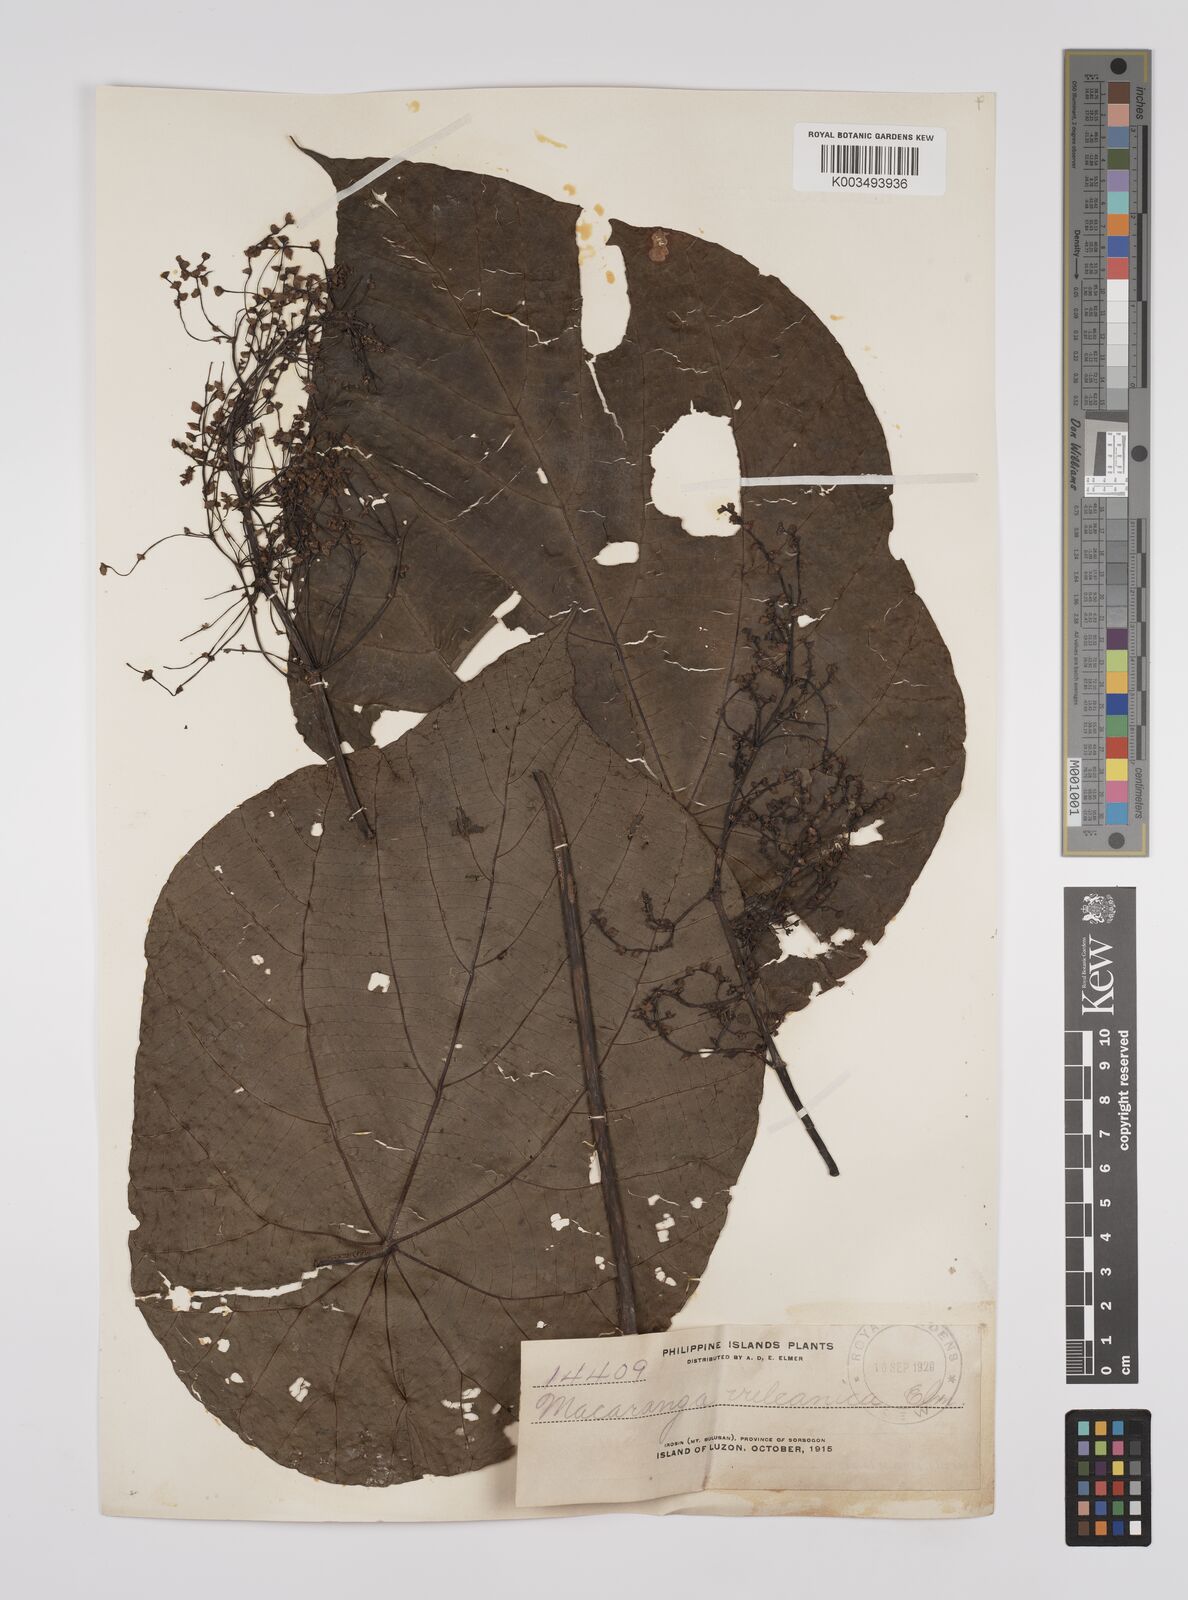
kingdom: Plantae
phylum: Tracheophyta
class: Magnoliopsida
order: Malpighiales
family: Euphorbiaceae
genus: Macaranga
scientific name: Macaranga tanarius
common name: Parasol leaf tree
